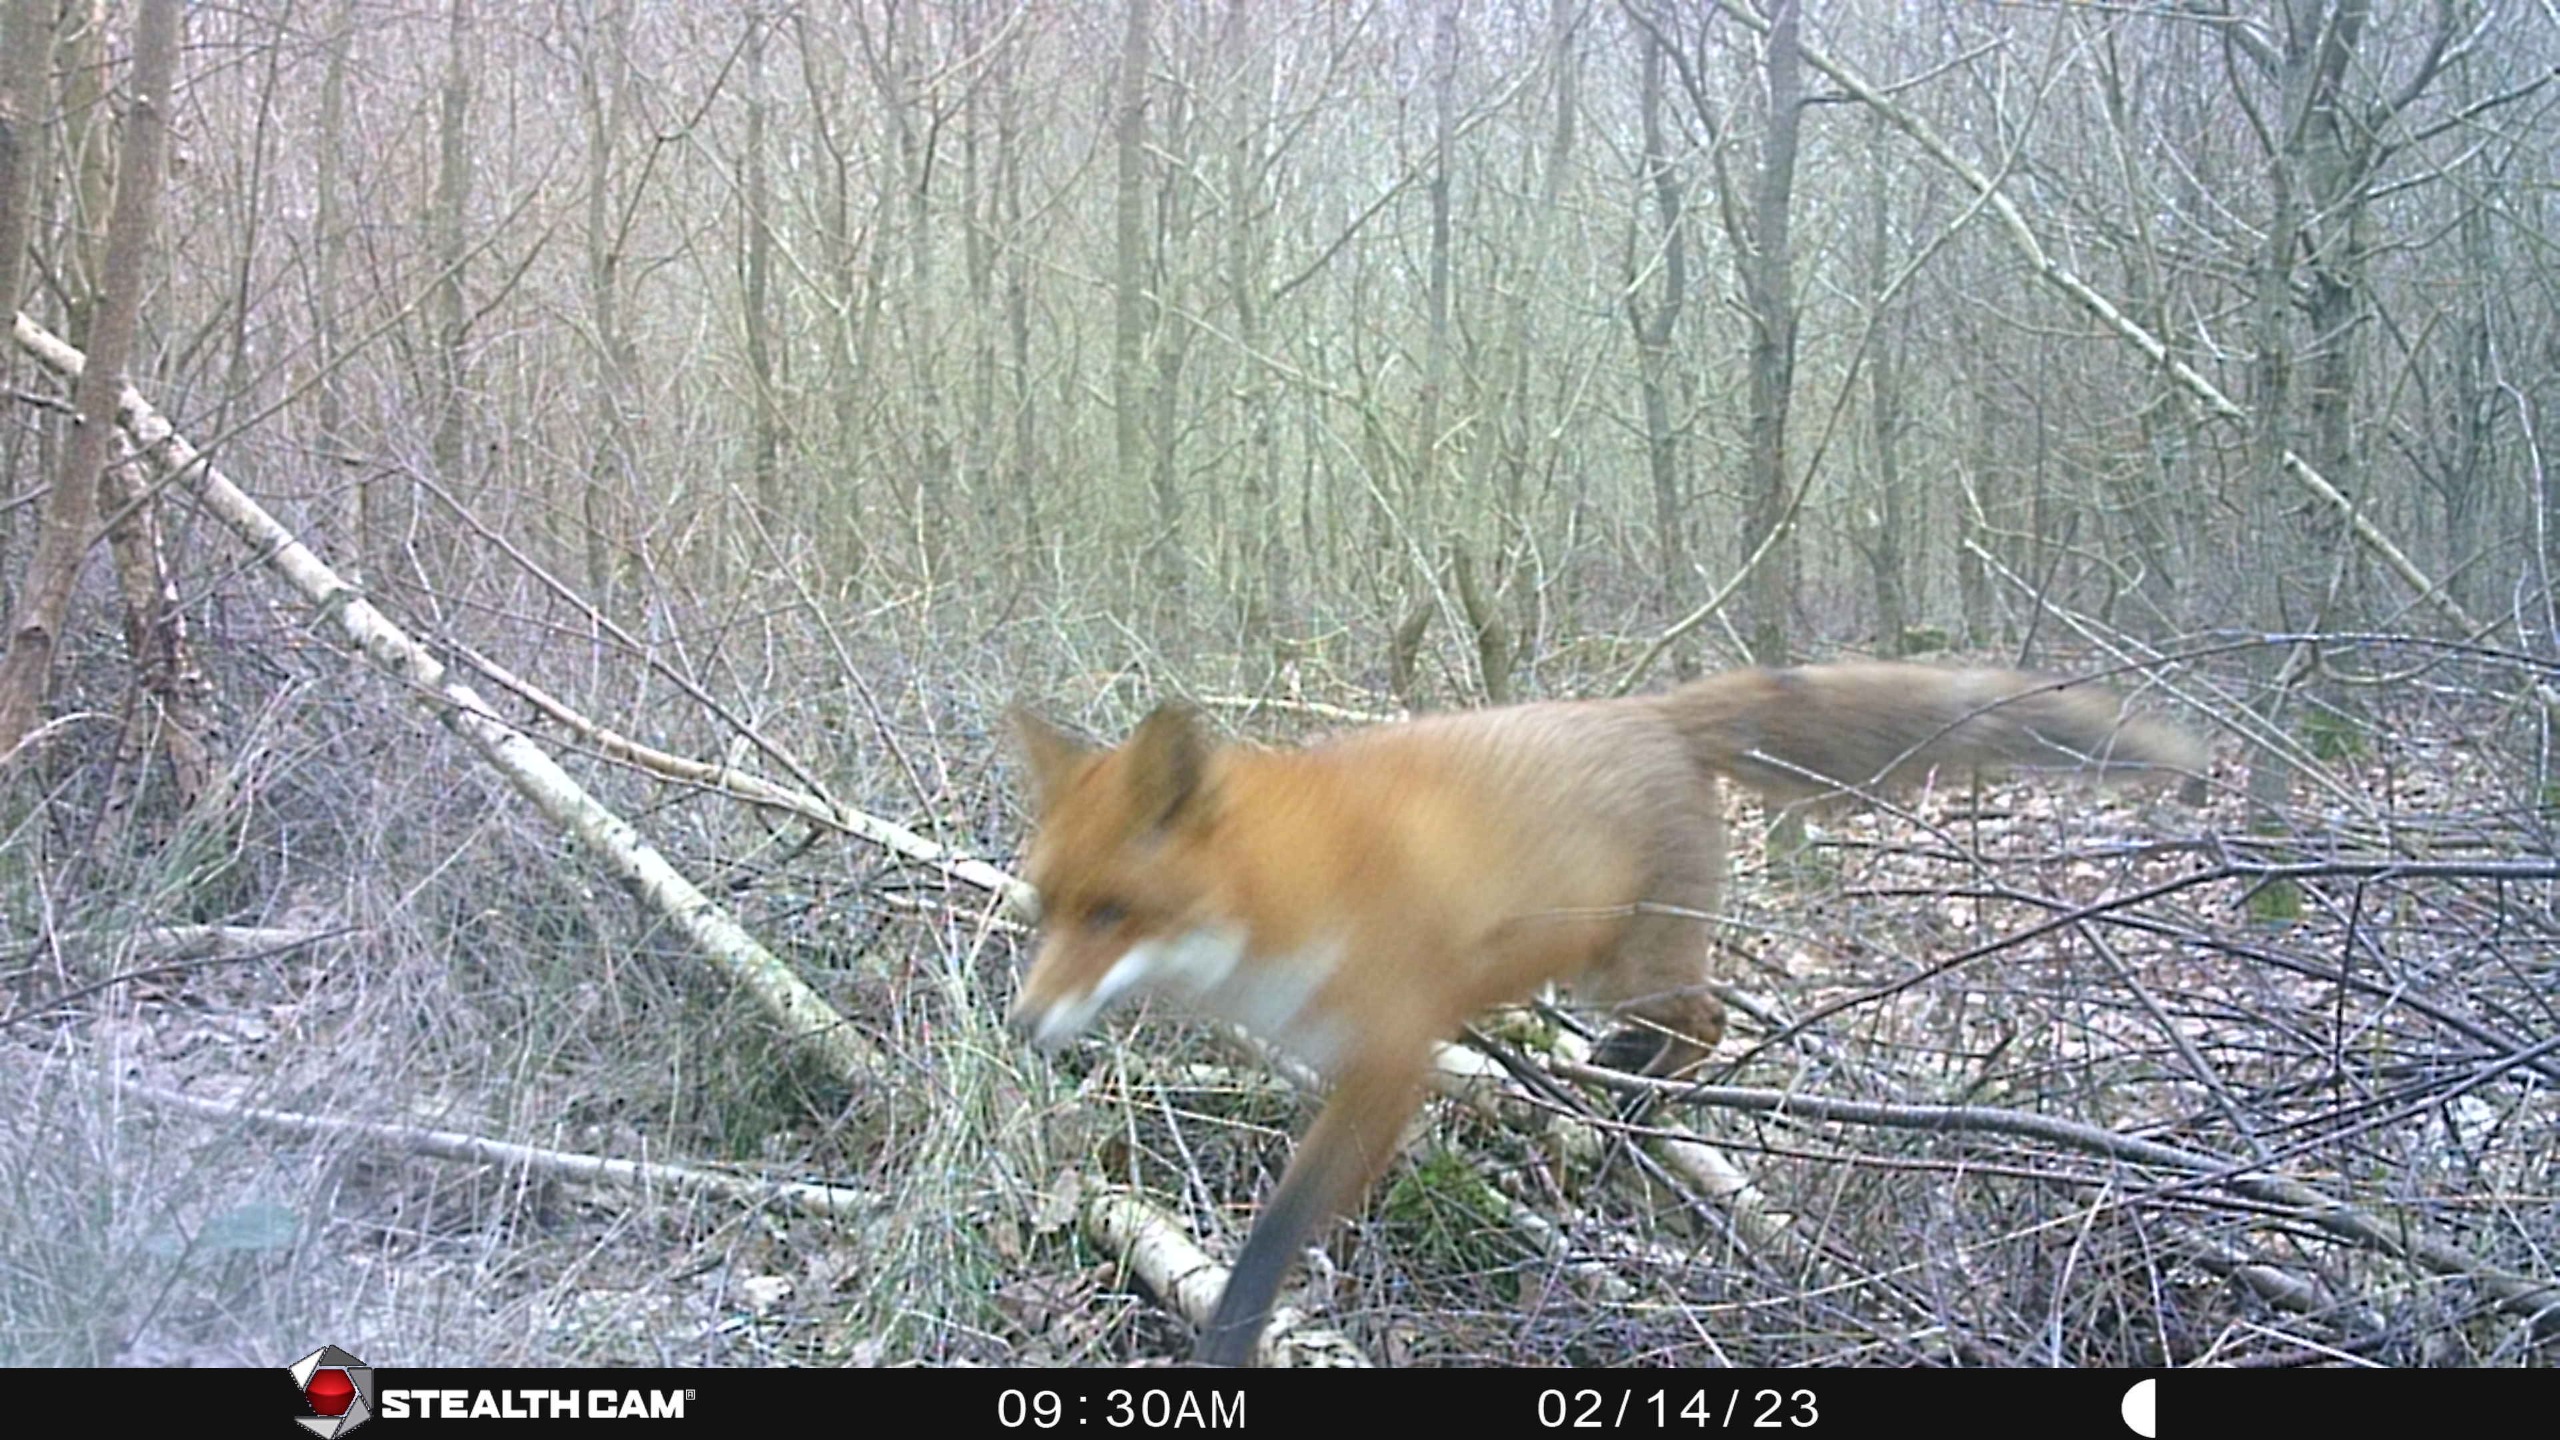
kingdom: Animalia
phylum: Chordata
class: Mammalia
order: Carnivora
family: Canidae
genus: Vulpes
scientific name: Vulpes vulpes
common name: Ræv
